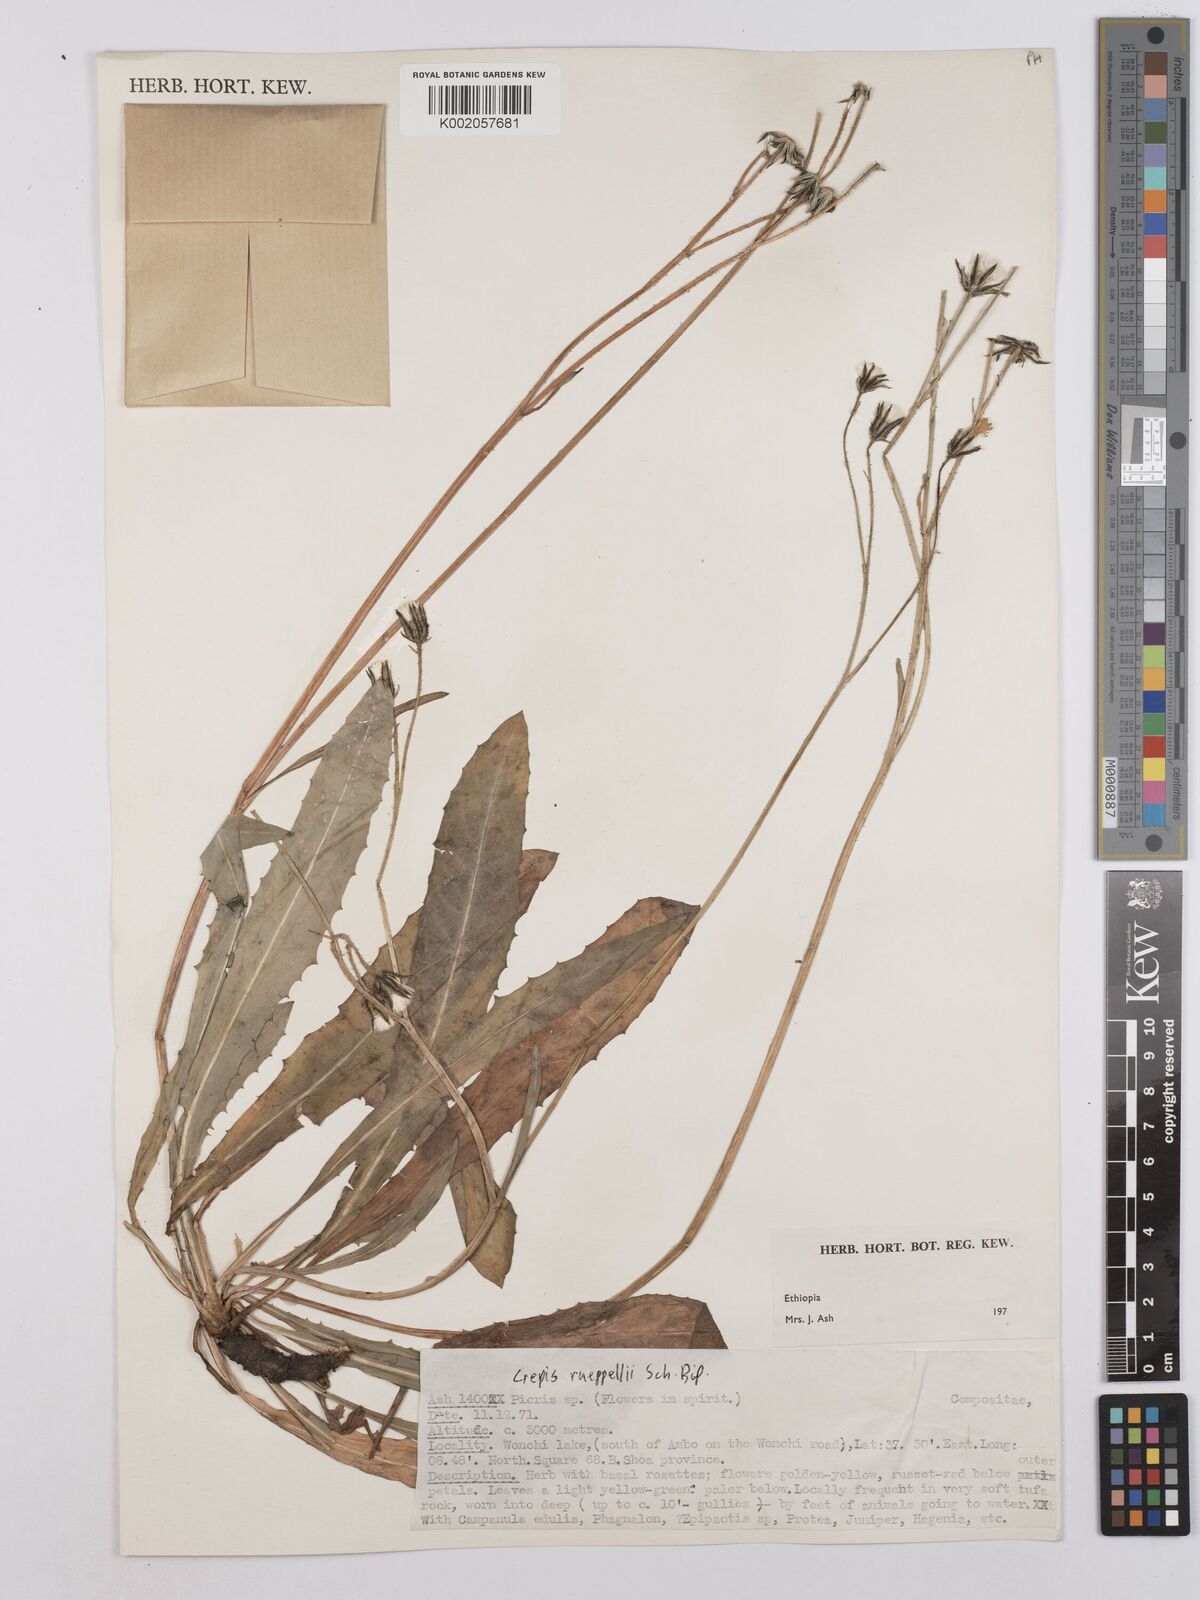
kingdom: Plantae
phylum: Tracheophyta
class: Magnoliopsida
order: Asterales
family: Asteraceae
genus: Crepis
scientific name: Crepis rueppellii
